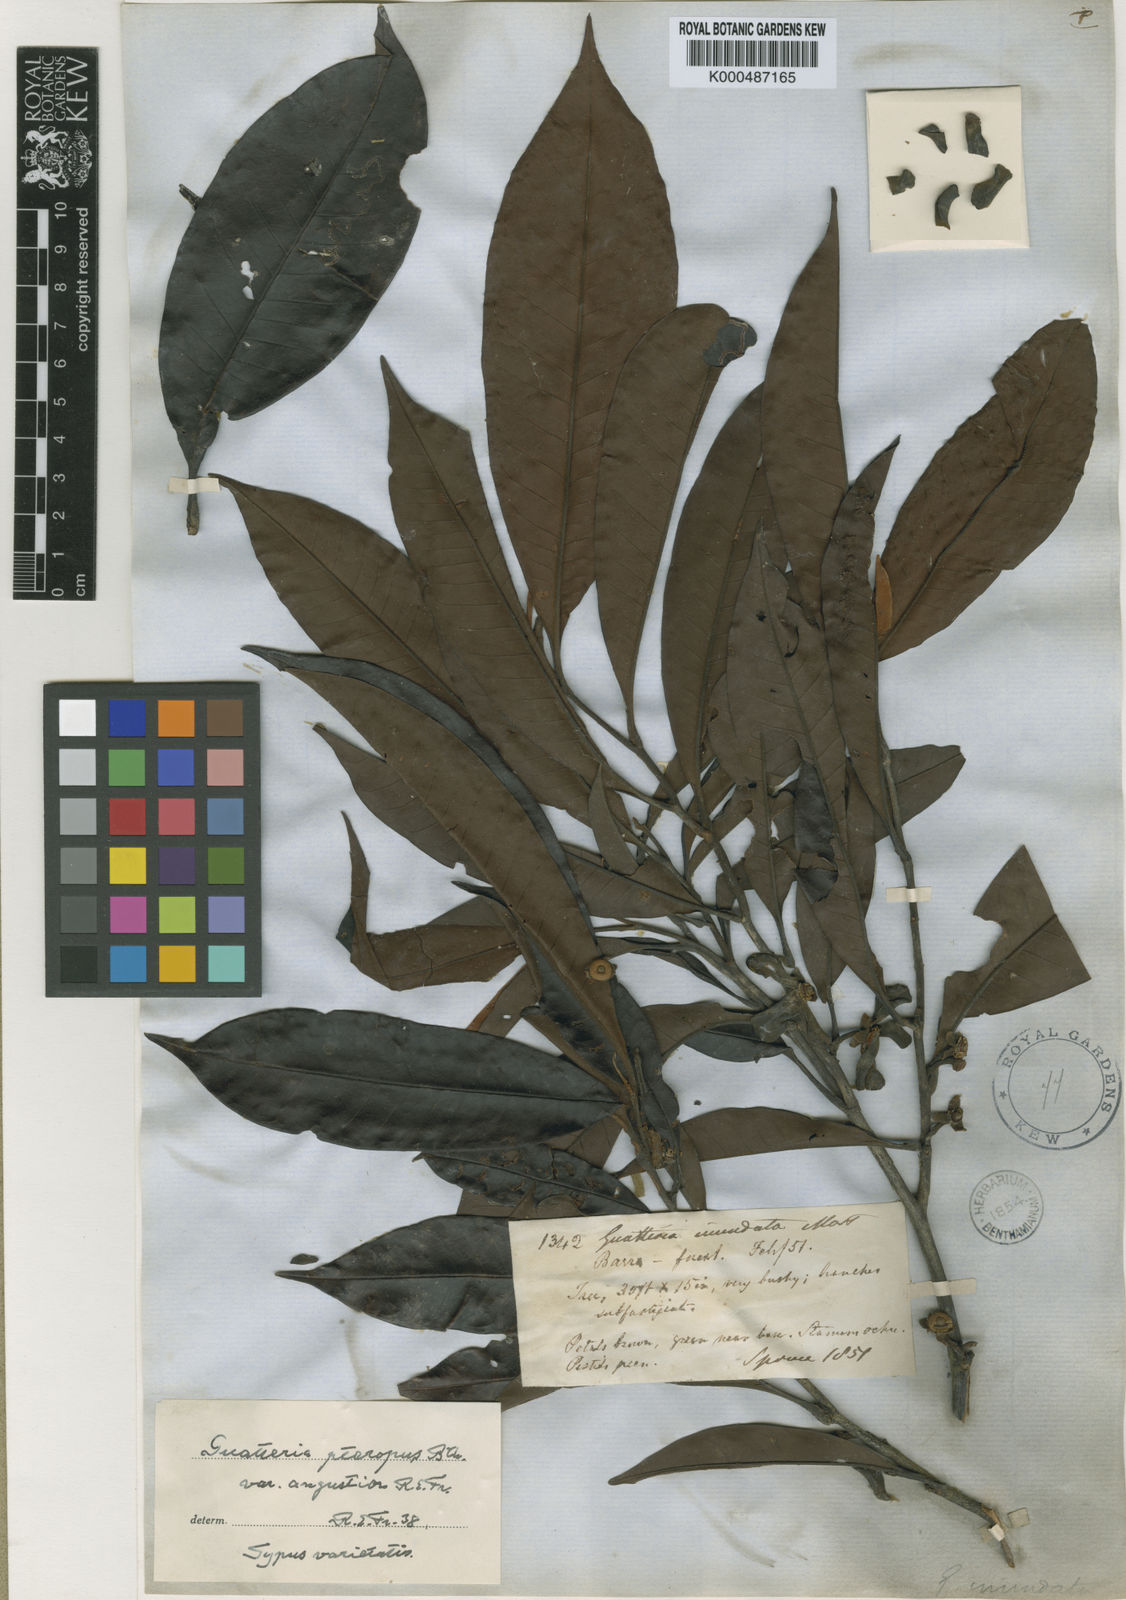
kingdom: Plantae
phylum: Tracheophyta
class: Magnoliopsida
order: Magnoliales
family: Annonaceae
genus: Guatteria
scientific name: Guatteria punctata
